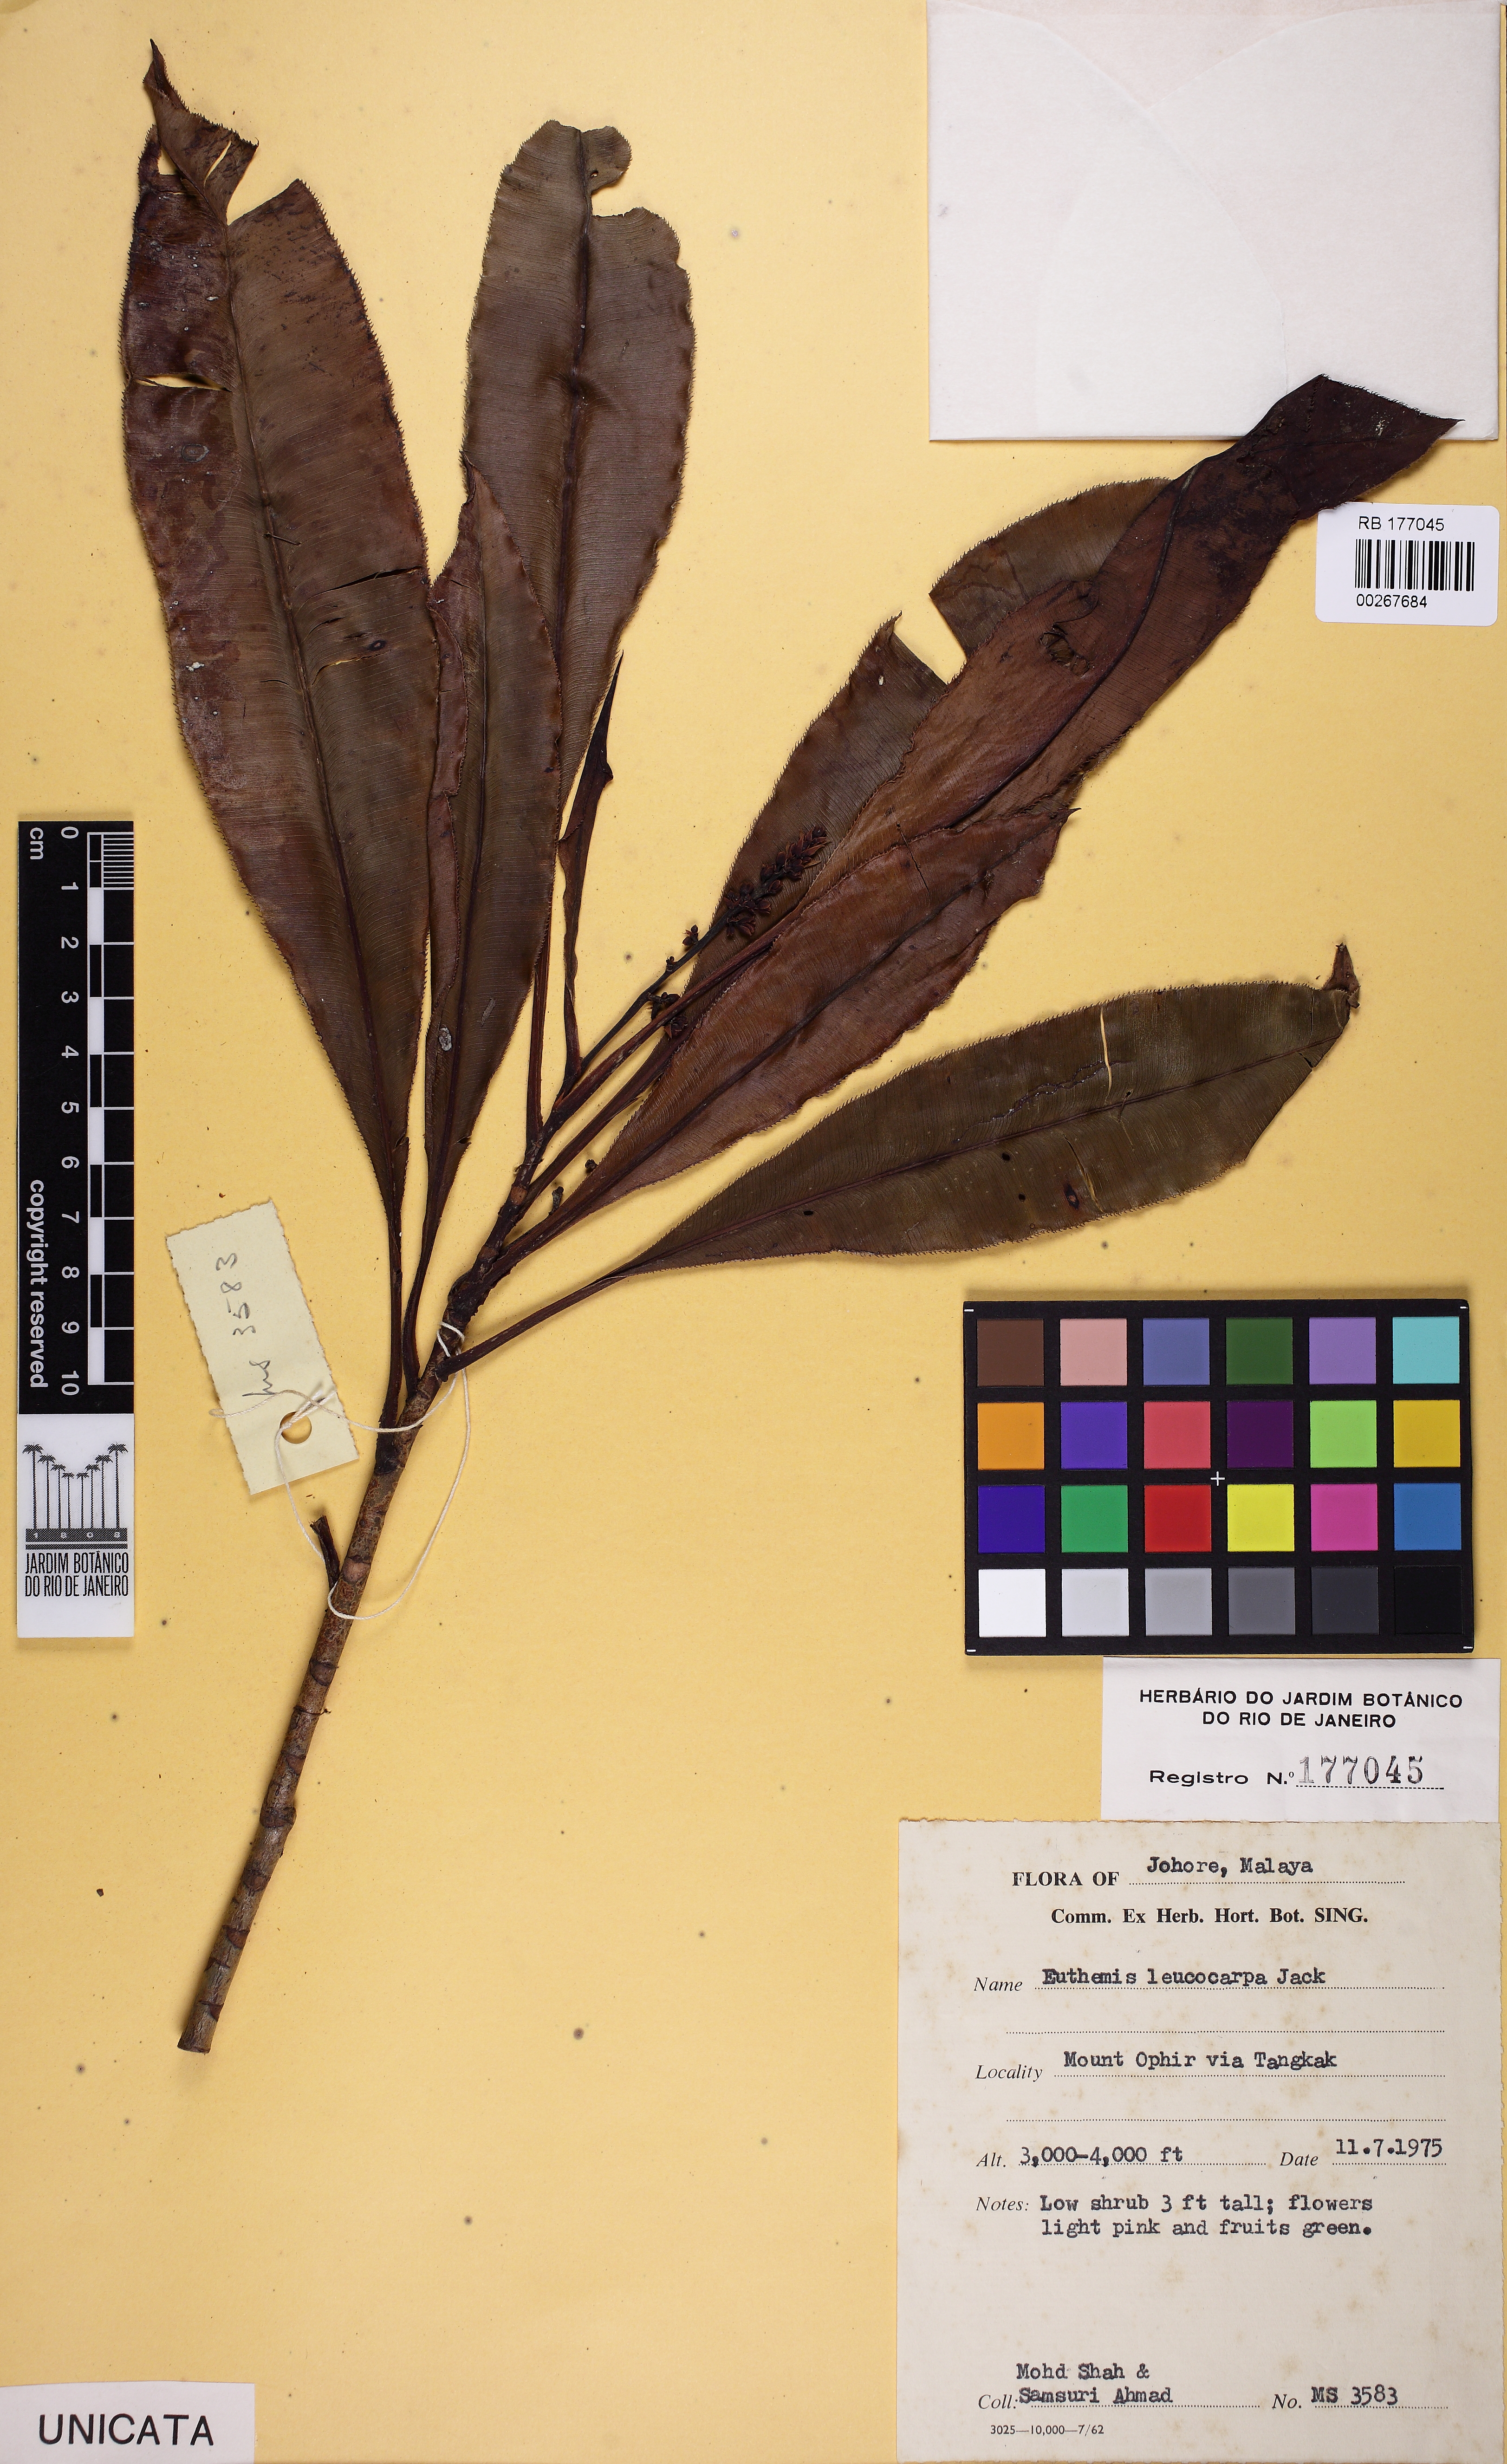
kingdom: Plantae
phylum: Tracheophyta
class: Magnoliopsida
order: Malpighiales
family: Ochnaceae
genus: Euthemis
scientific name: Euthemis leucocarpa
